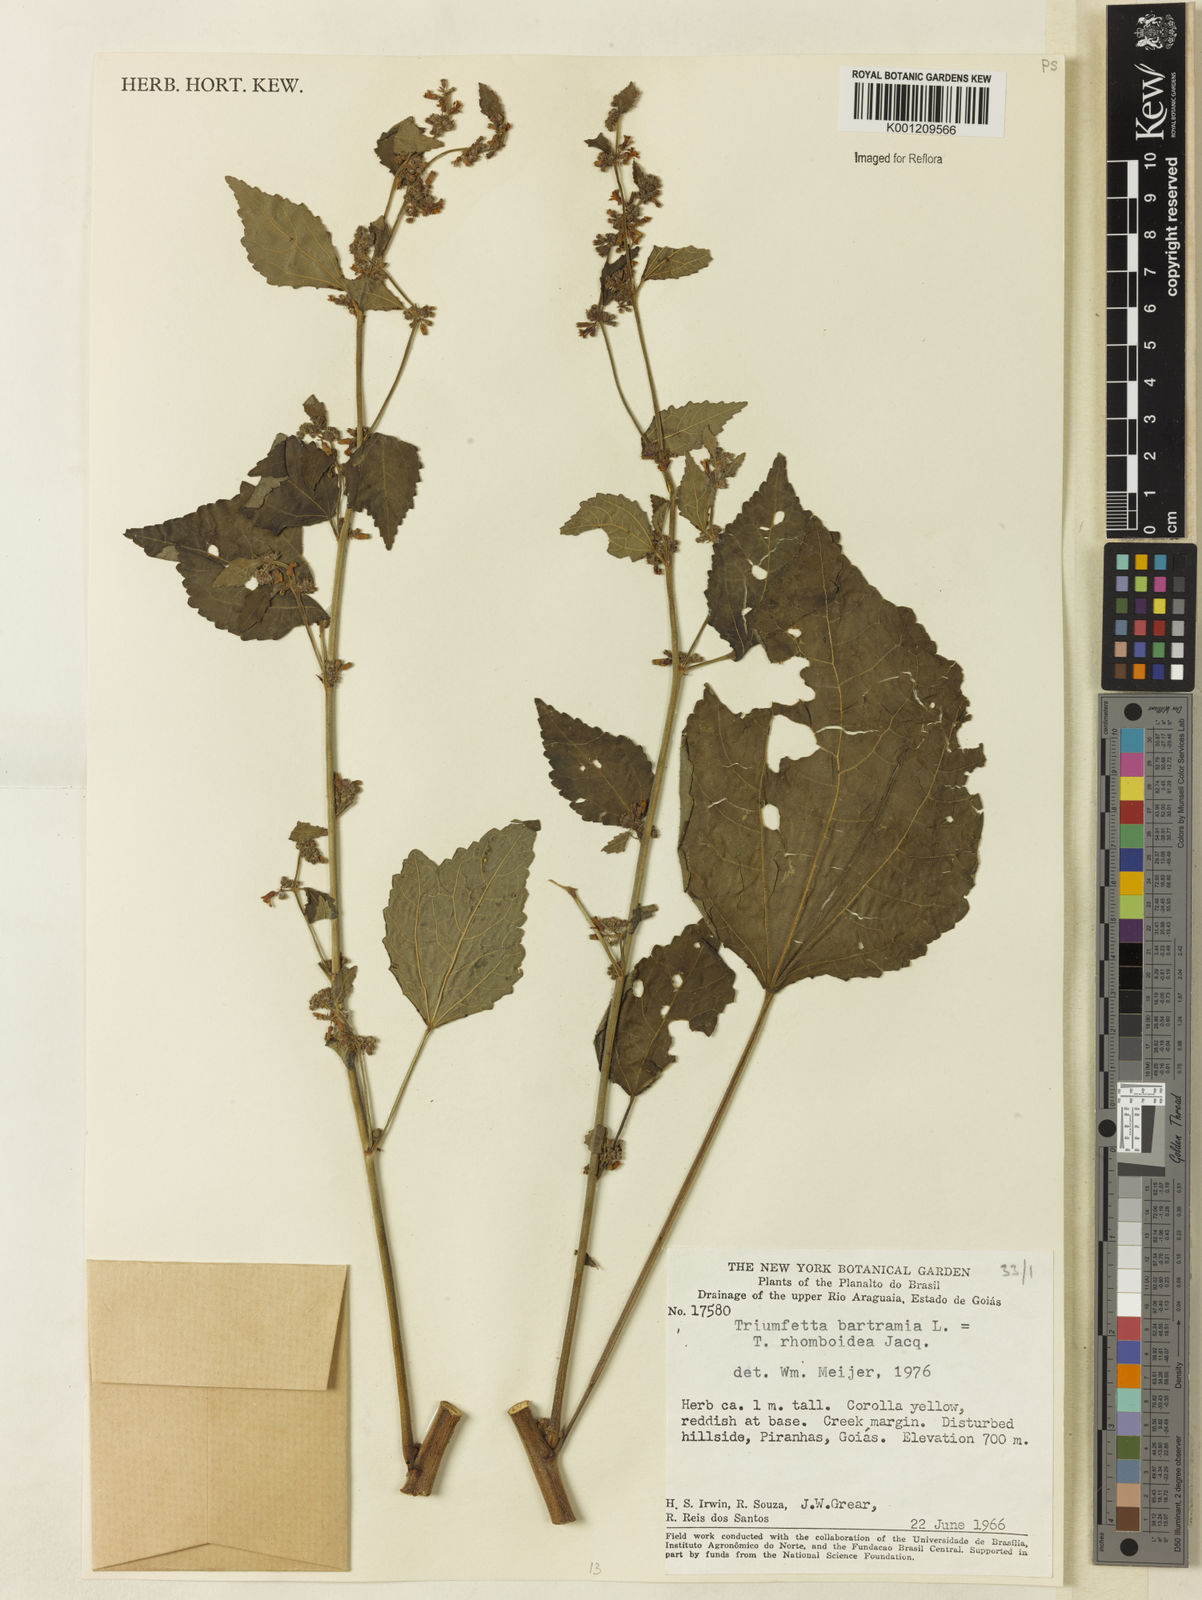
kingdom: Plantae
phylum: Tracheophyta
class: Magnoliopsida
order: Malvales
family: Malvaceae
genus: Triumfetta
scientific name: Triumfetta rhomboidea
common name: Diamond burbark
